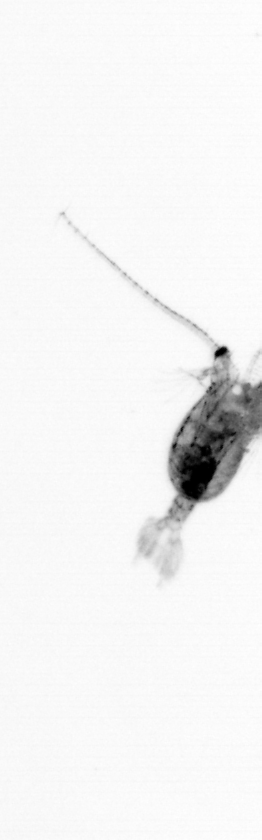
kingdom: Animalia
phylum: Arthropoda
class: Copepoda
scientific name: Copepoda
